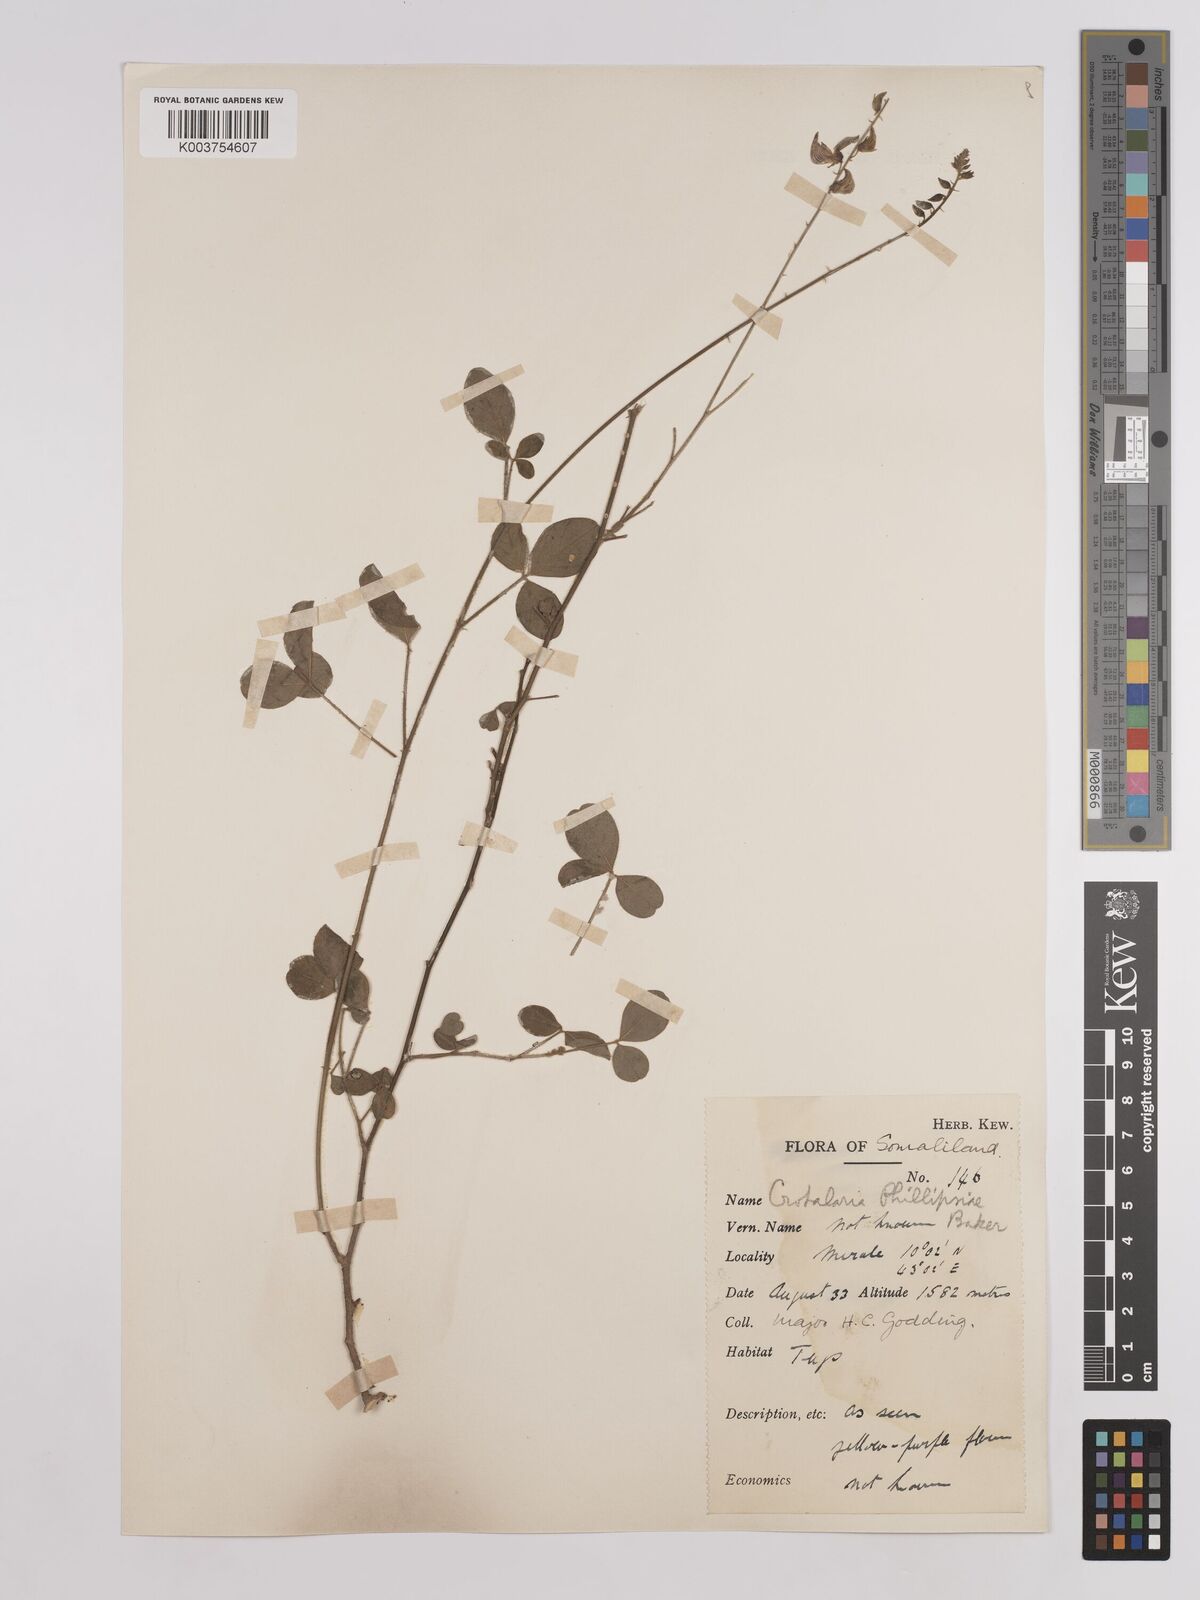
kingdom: Plantae
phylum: Tracheophyta
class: Magnoliopsida
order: Fabales
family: Fabaceae
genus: Crotalaria
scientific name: Crotalaria phillipsiae
